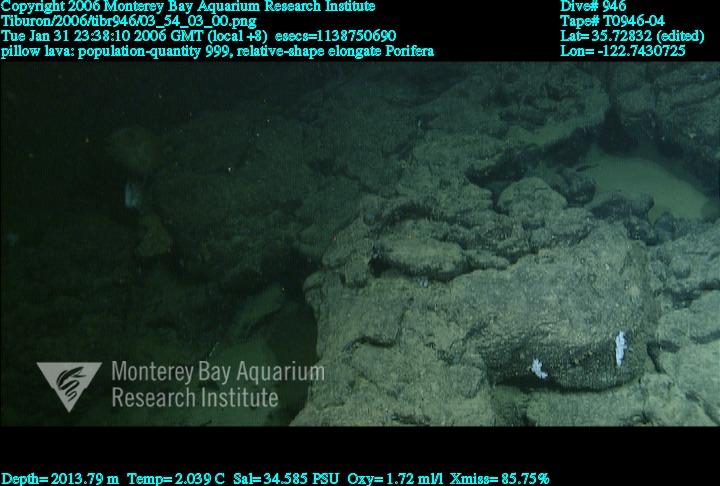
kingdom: Animalia
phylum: Porifera
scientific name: Porifera
